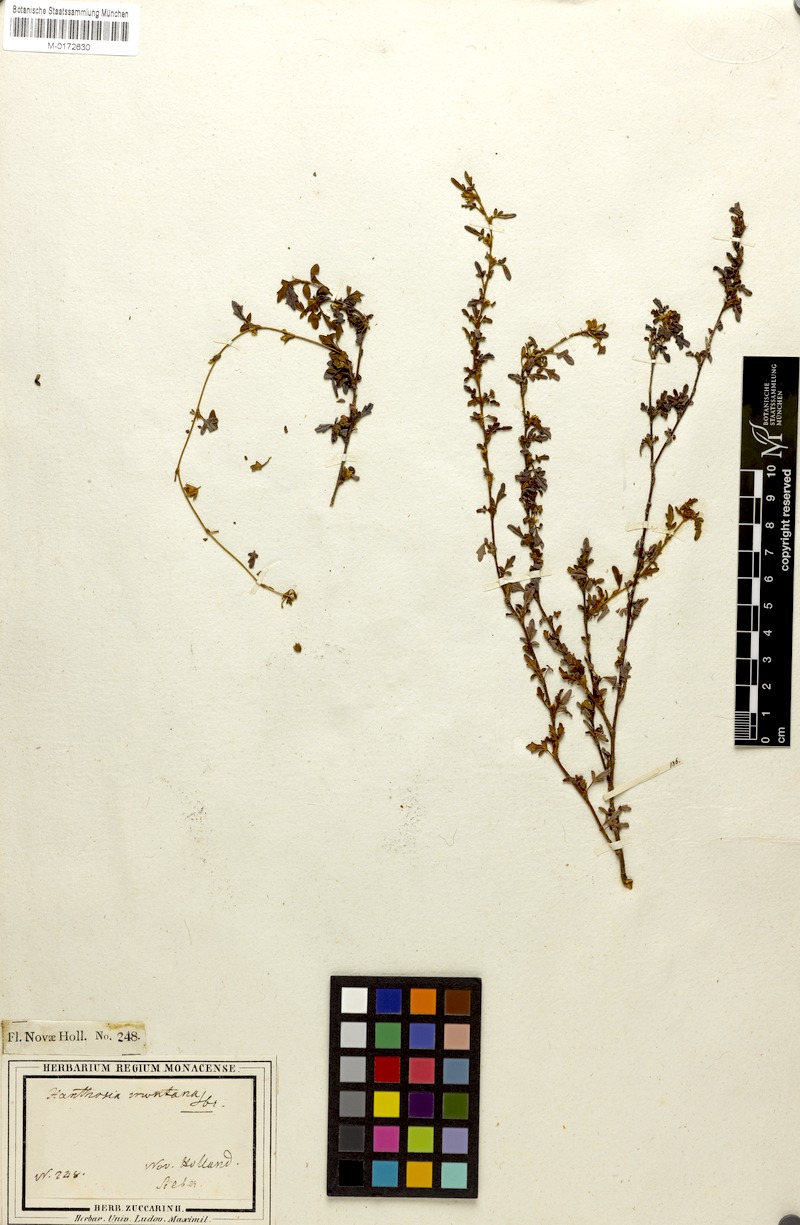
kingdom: Plantae
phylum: Tracheophyta
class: Magnoliopsida
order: Apiales
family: Apiaceae
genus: Xanthosia
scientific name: Xanthosia pilosa
